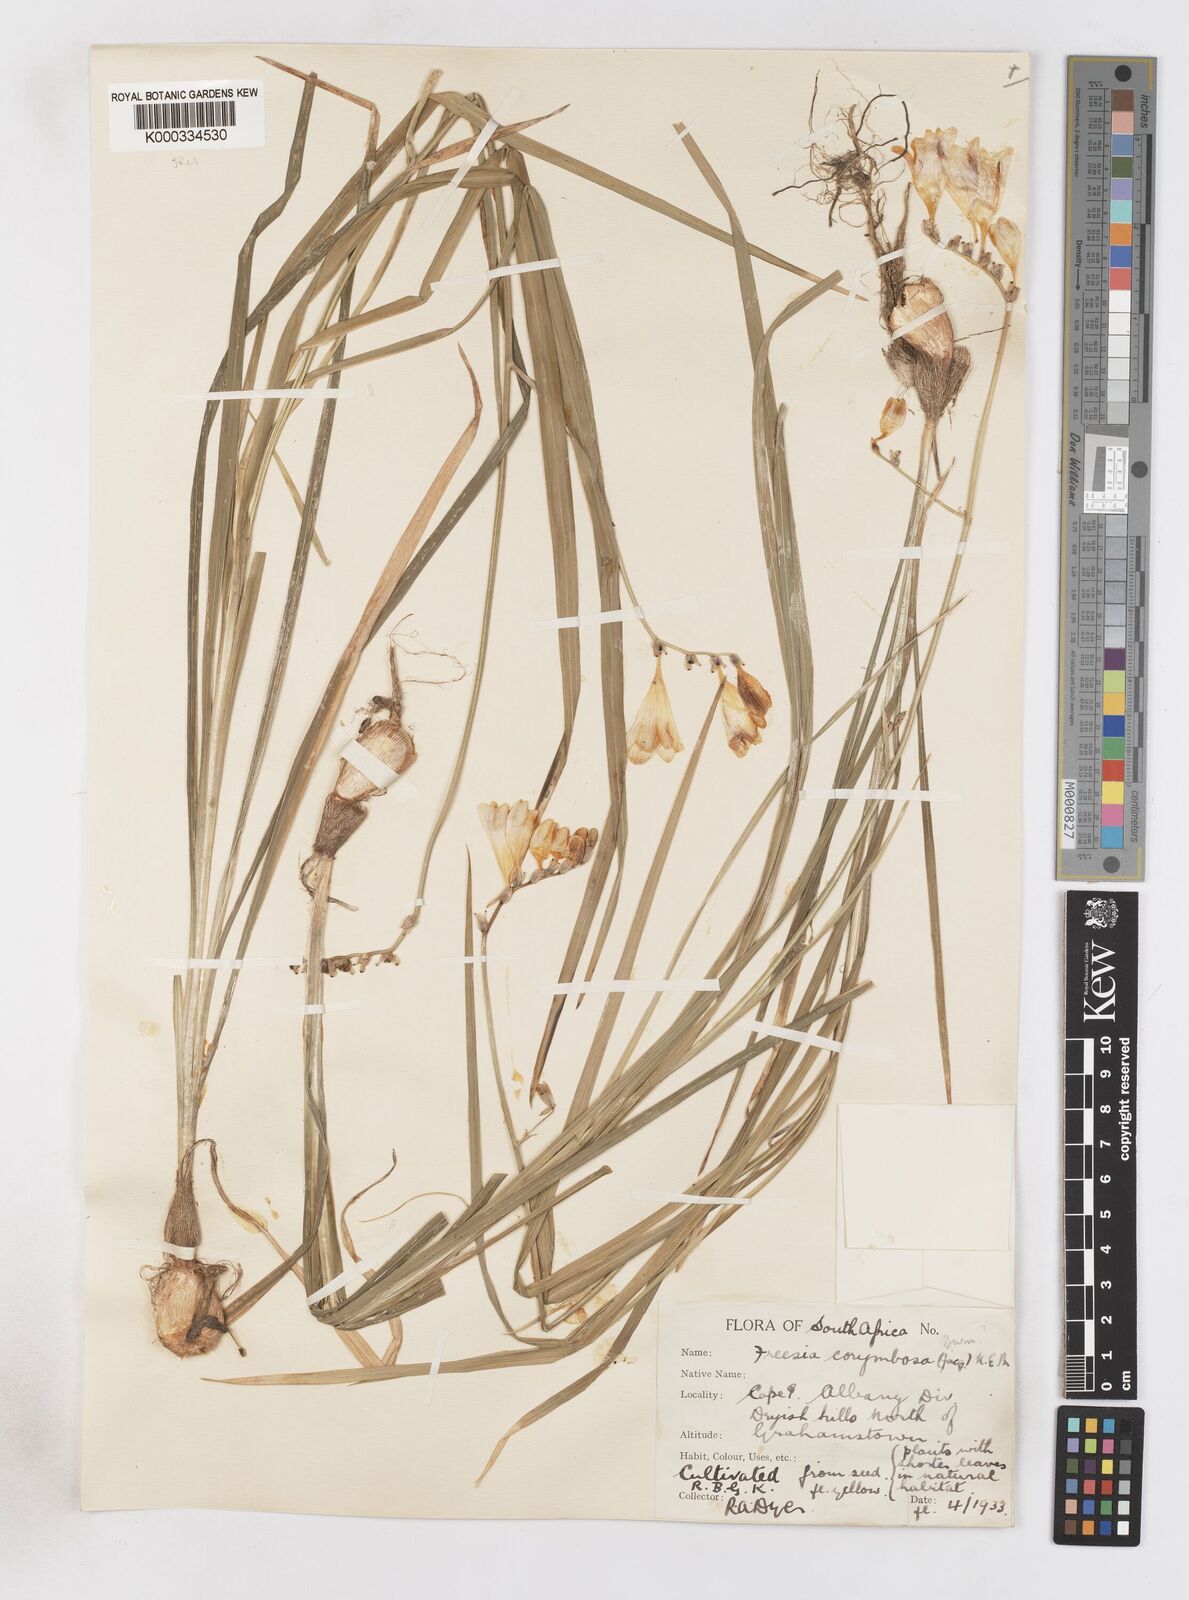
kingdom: Plantae
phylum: Tracheophyta
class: Liliopsida
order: Asparagales
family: Iridaceae
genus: Freesia
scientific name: Freesia corymbosa
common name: Common freesia
